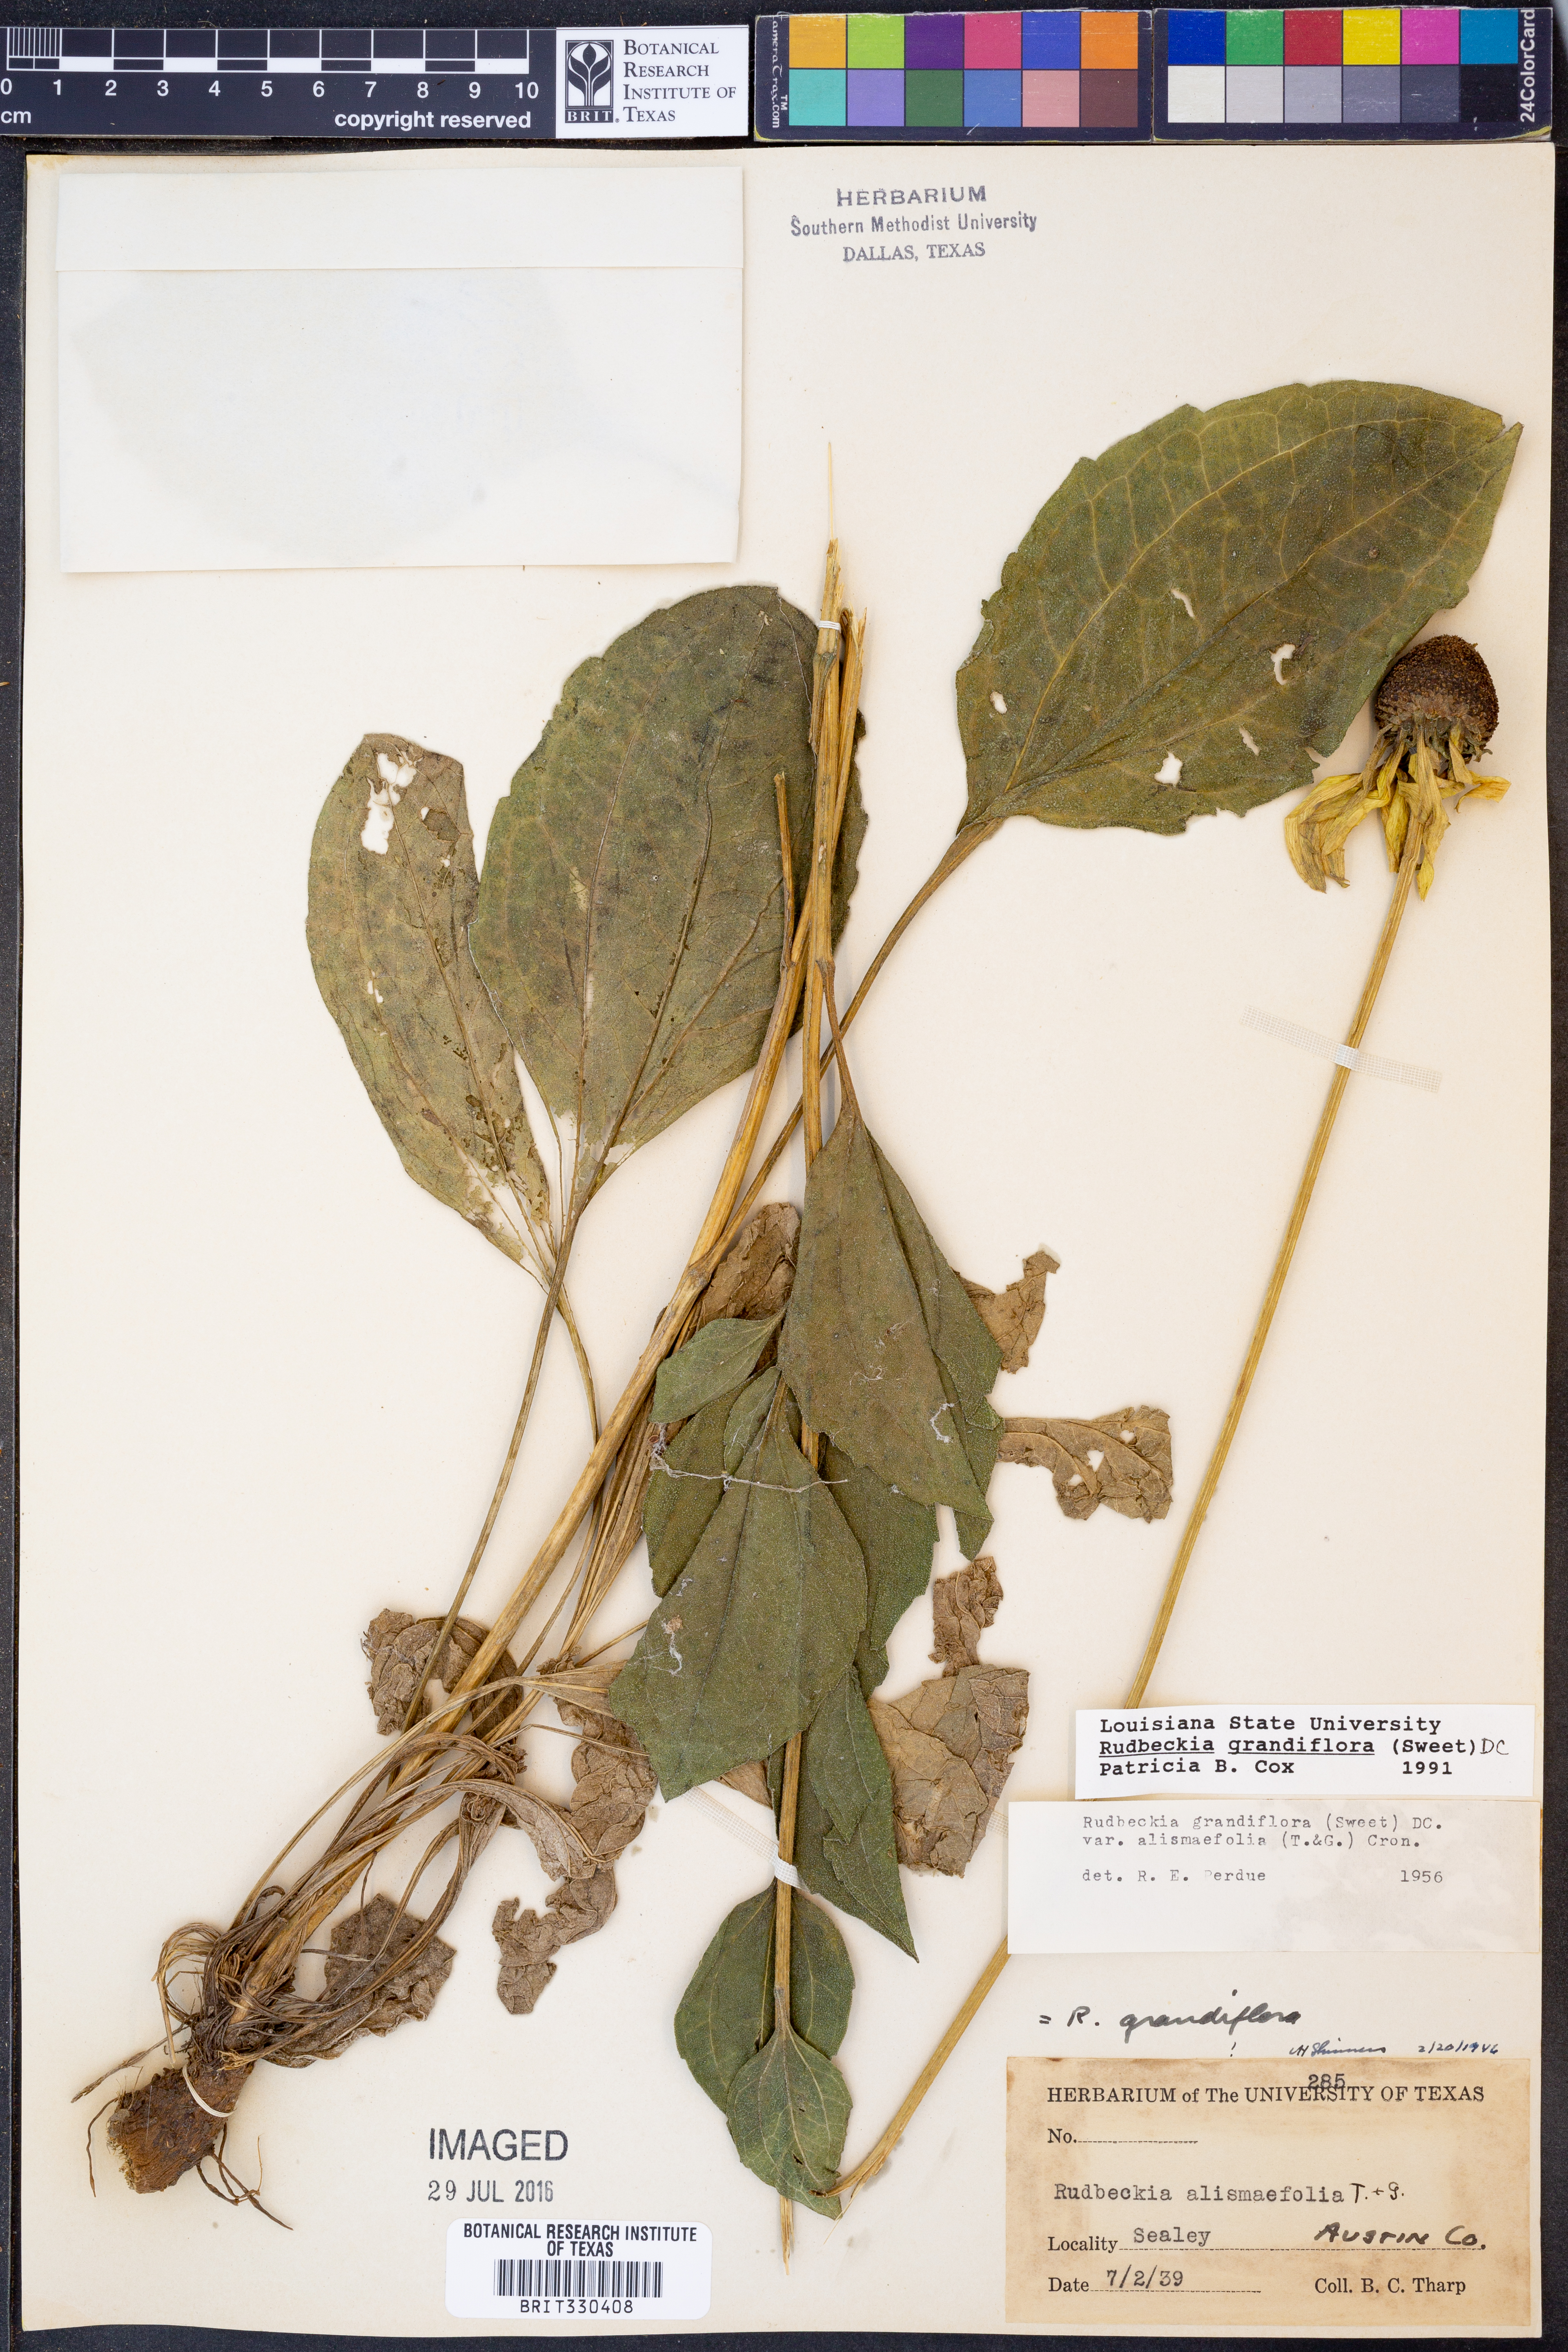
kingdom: Plantae
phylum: Tracheophyta
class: Magnoliopsida
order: Asterales
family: Asteraceae
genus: Rudbeckia
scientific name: Rudbeckia grandiflora
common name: Large-flowered coneflower
